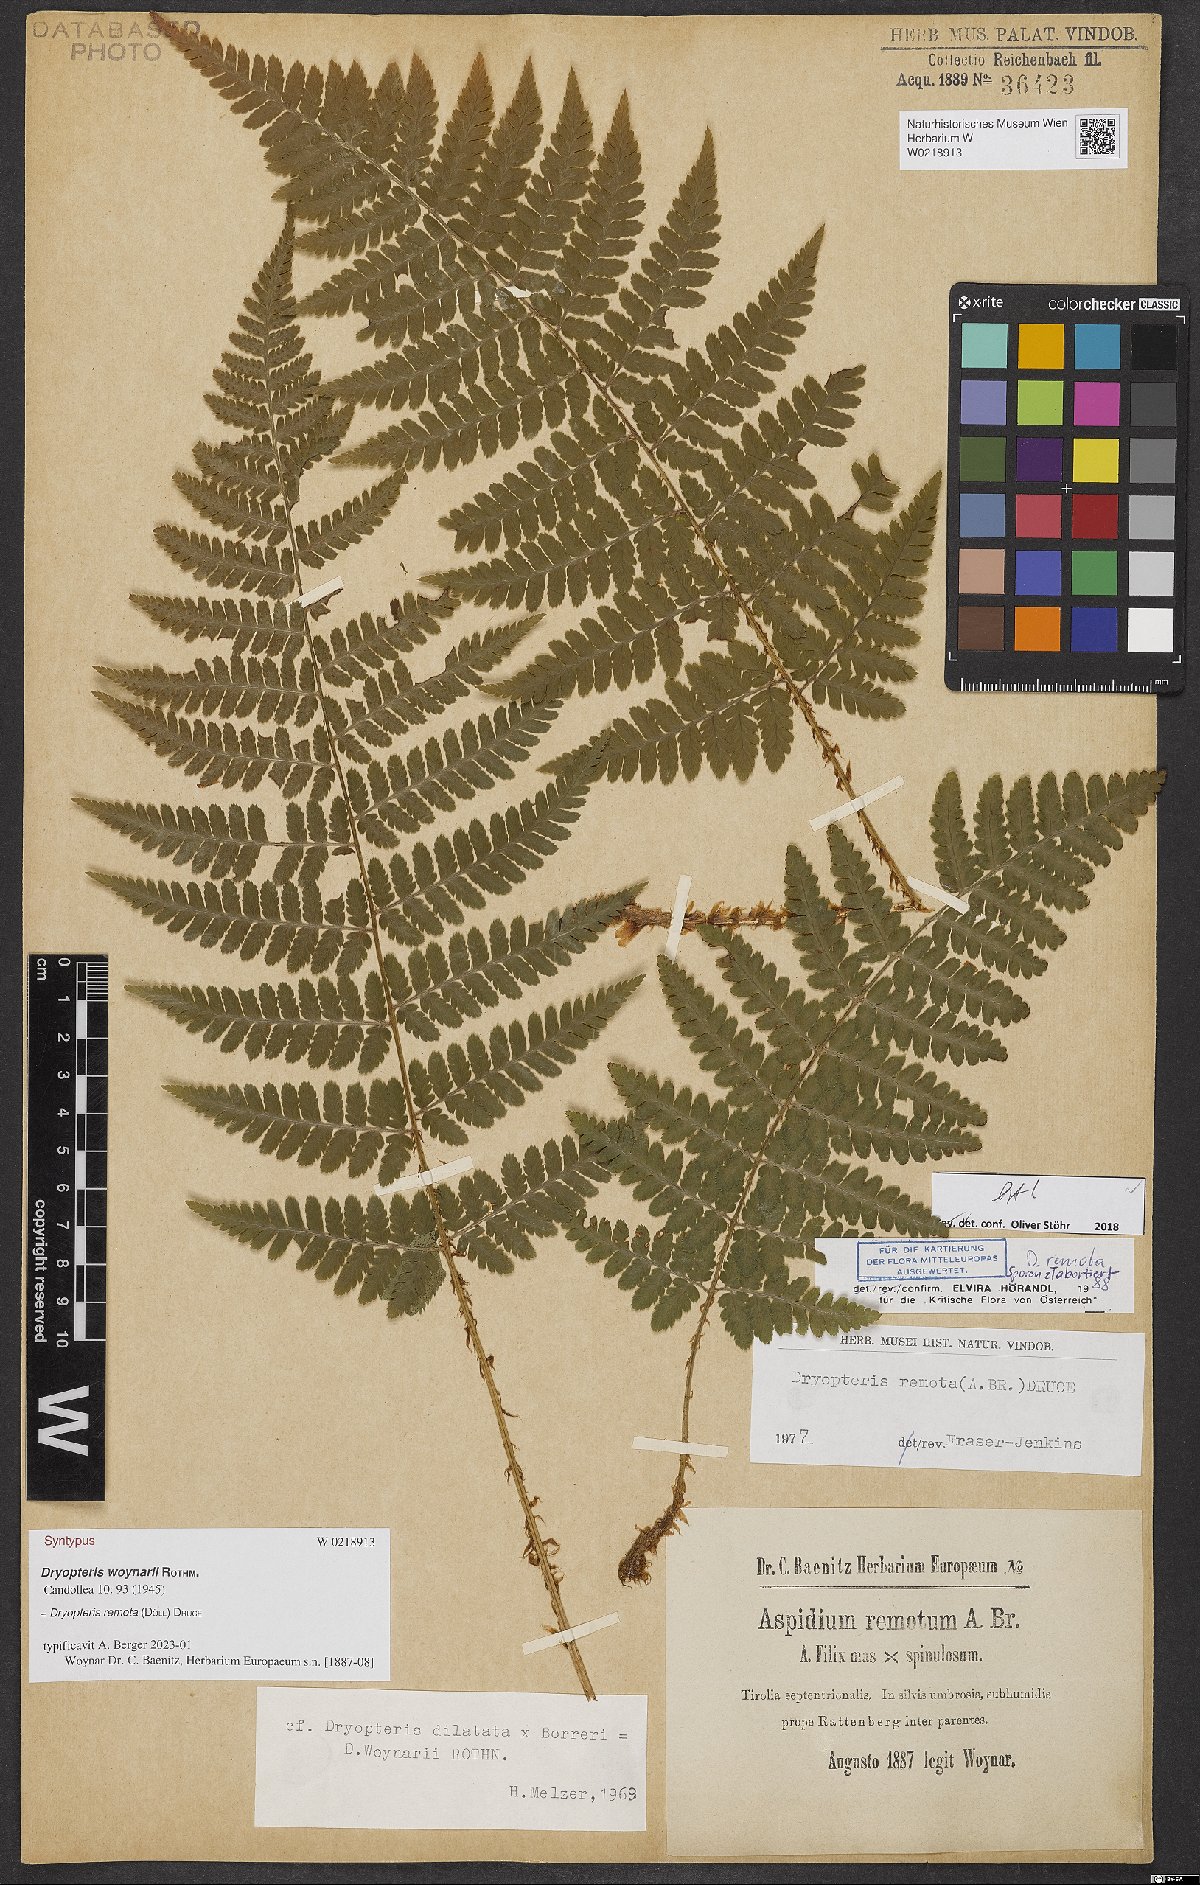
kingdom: Plantae
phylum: Tracheophyta
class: Polypodiopsida
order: Polypodiales
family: Dryopteridaceae
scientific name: Dryopteridaceae
